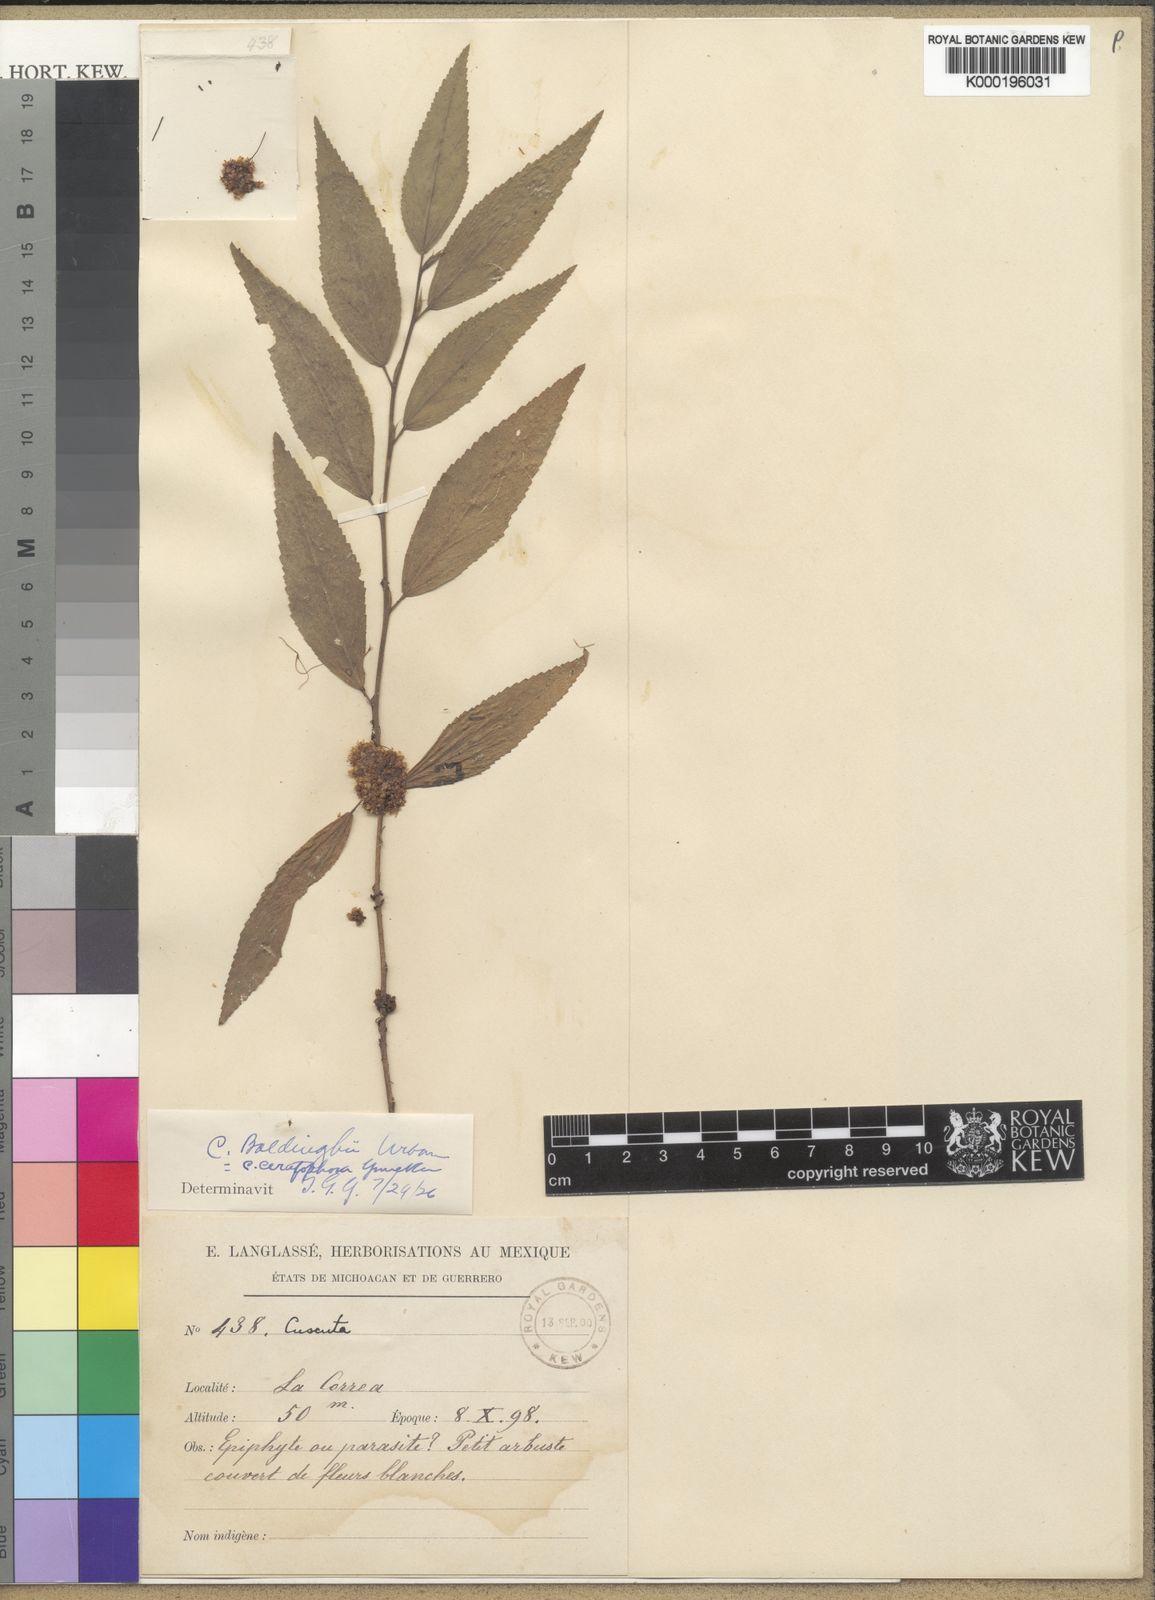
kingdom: Plantae
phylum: Tracheophyta
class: Magnoliopsida
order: Solanales
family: Convolvulaceae
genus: Cuscuta
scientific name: Cuscuta boldinghii
